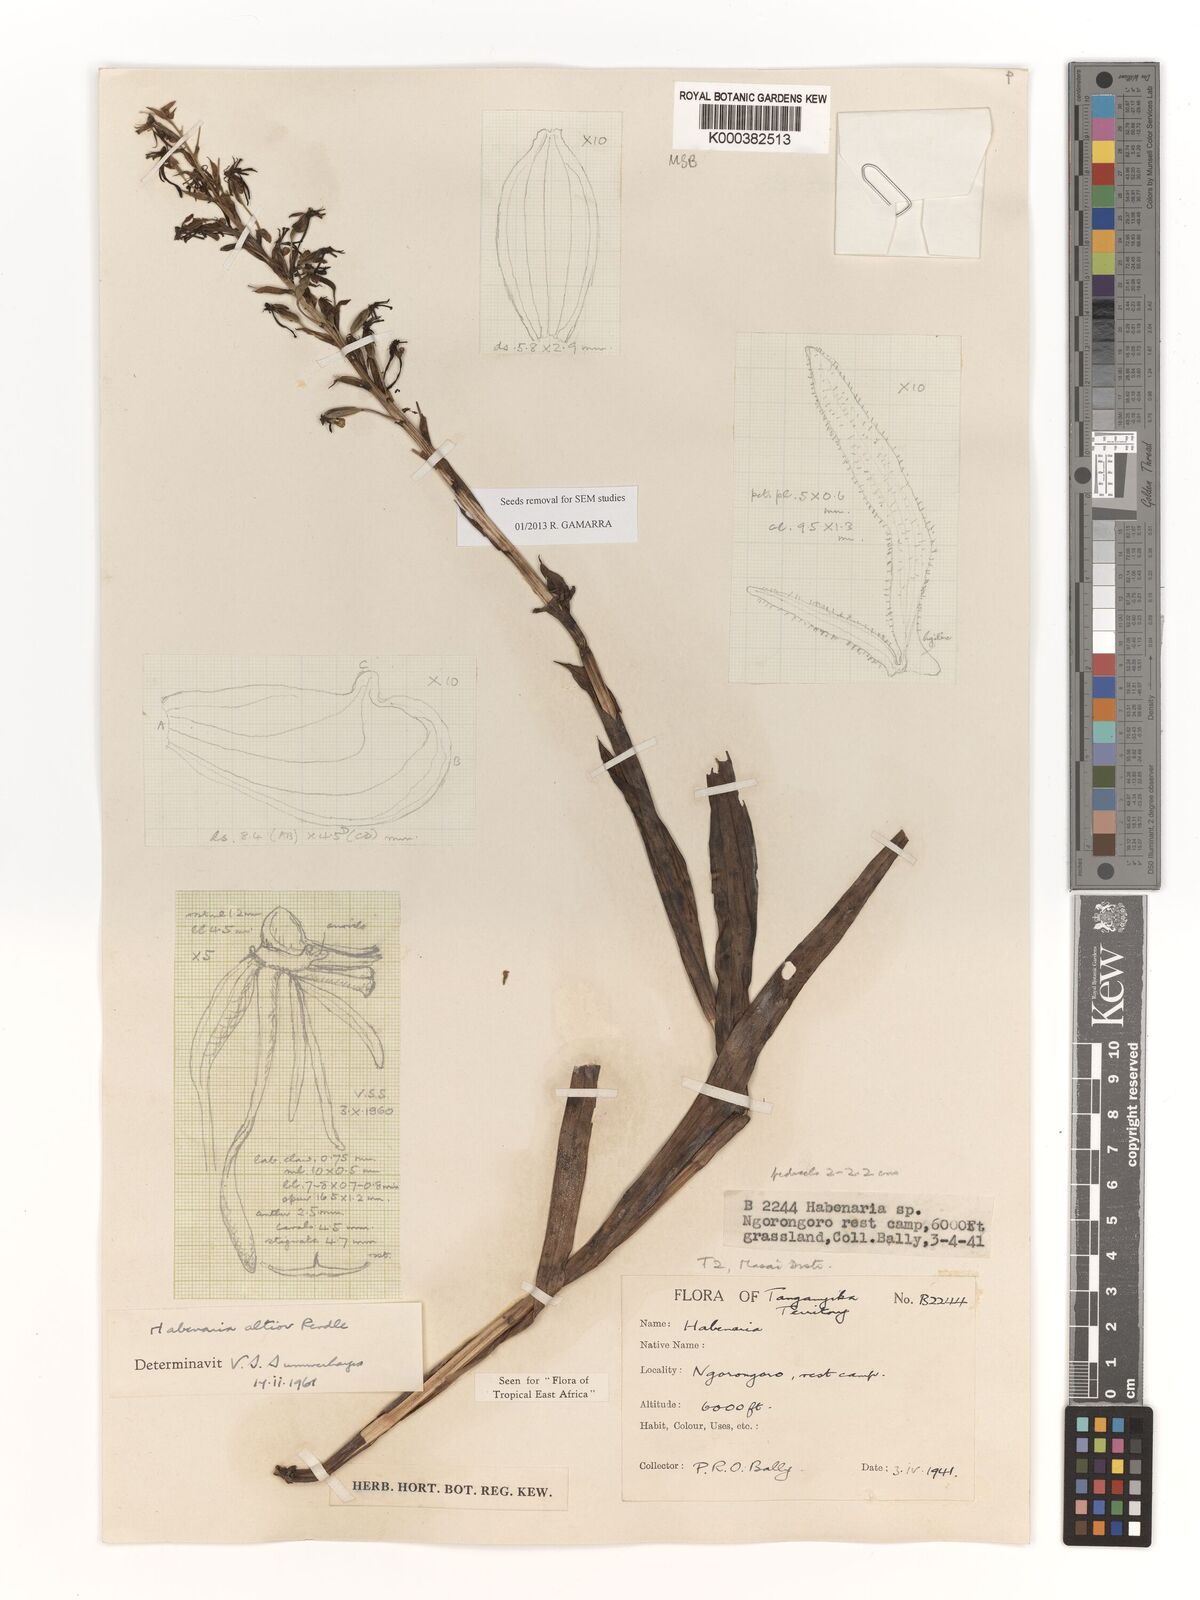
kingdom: Plantae
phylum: Tracheophyta
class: Liliopsida
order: Asparagales
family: Orchidaceae
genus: Habenaria
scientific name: Habenaria altior
